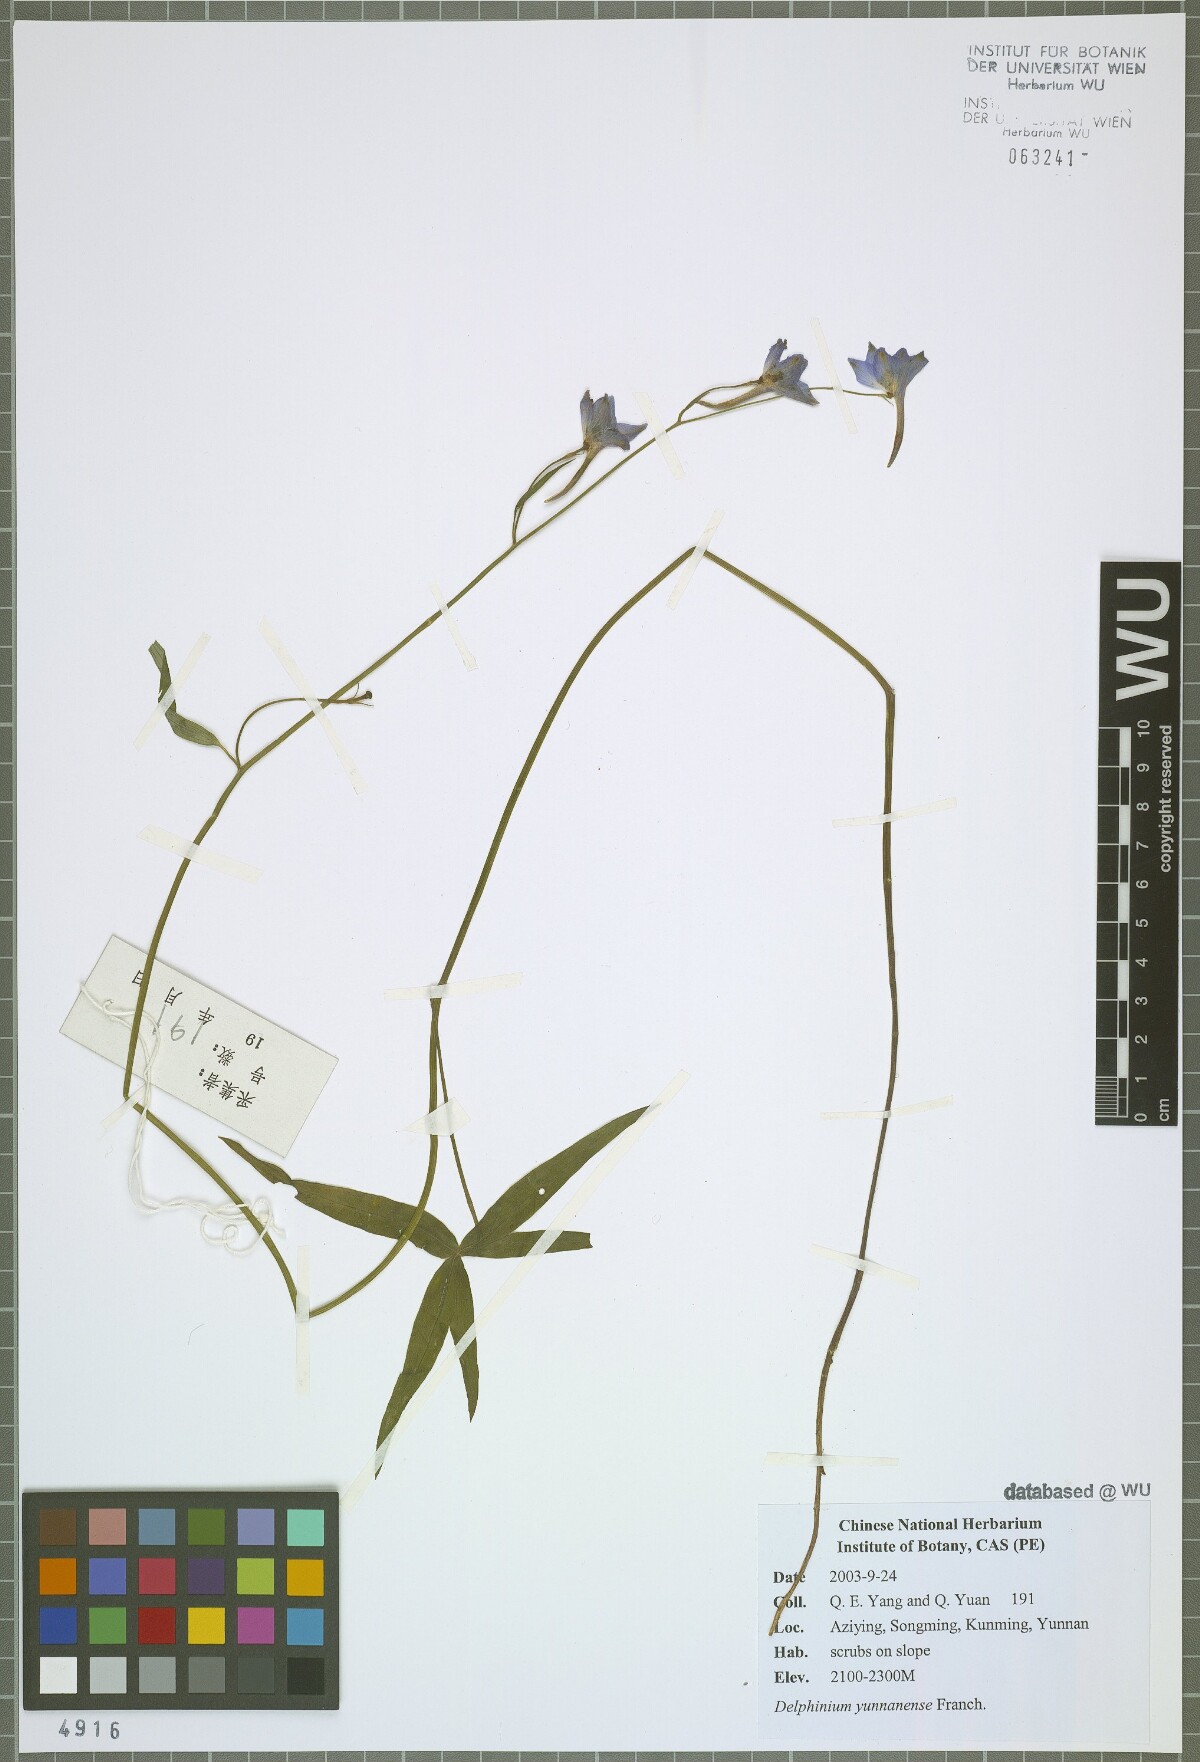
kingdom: Plantae
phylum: Tracheophyta
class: Magnoliopsida
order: Ranunculales
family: Ranunculaceae
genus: Delphinium
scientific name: Delphinium yunnanense
